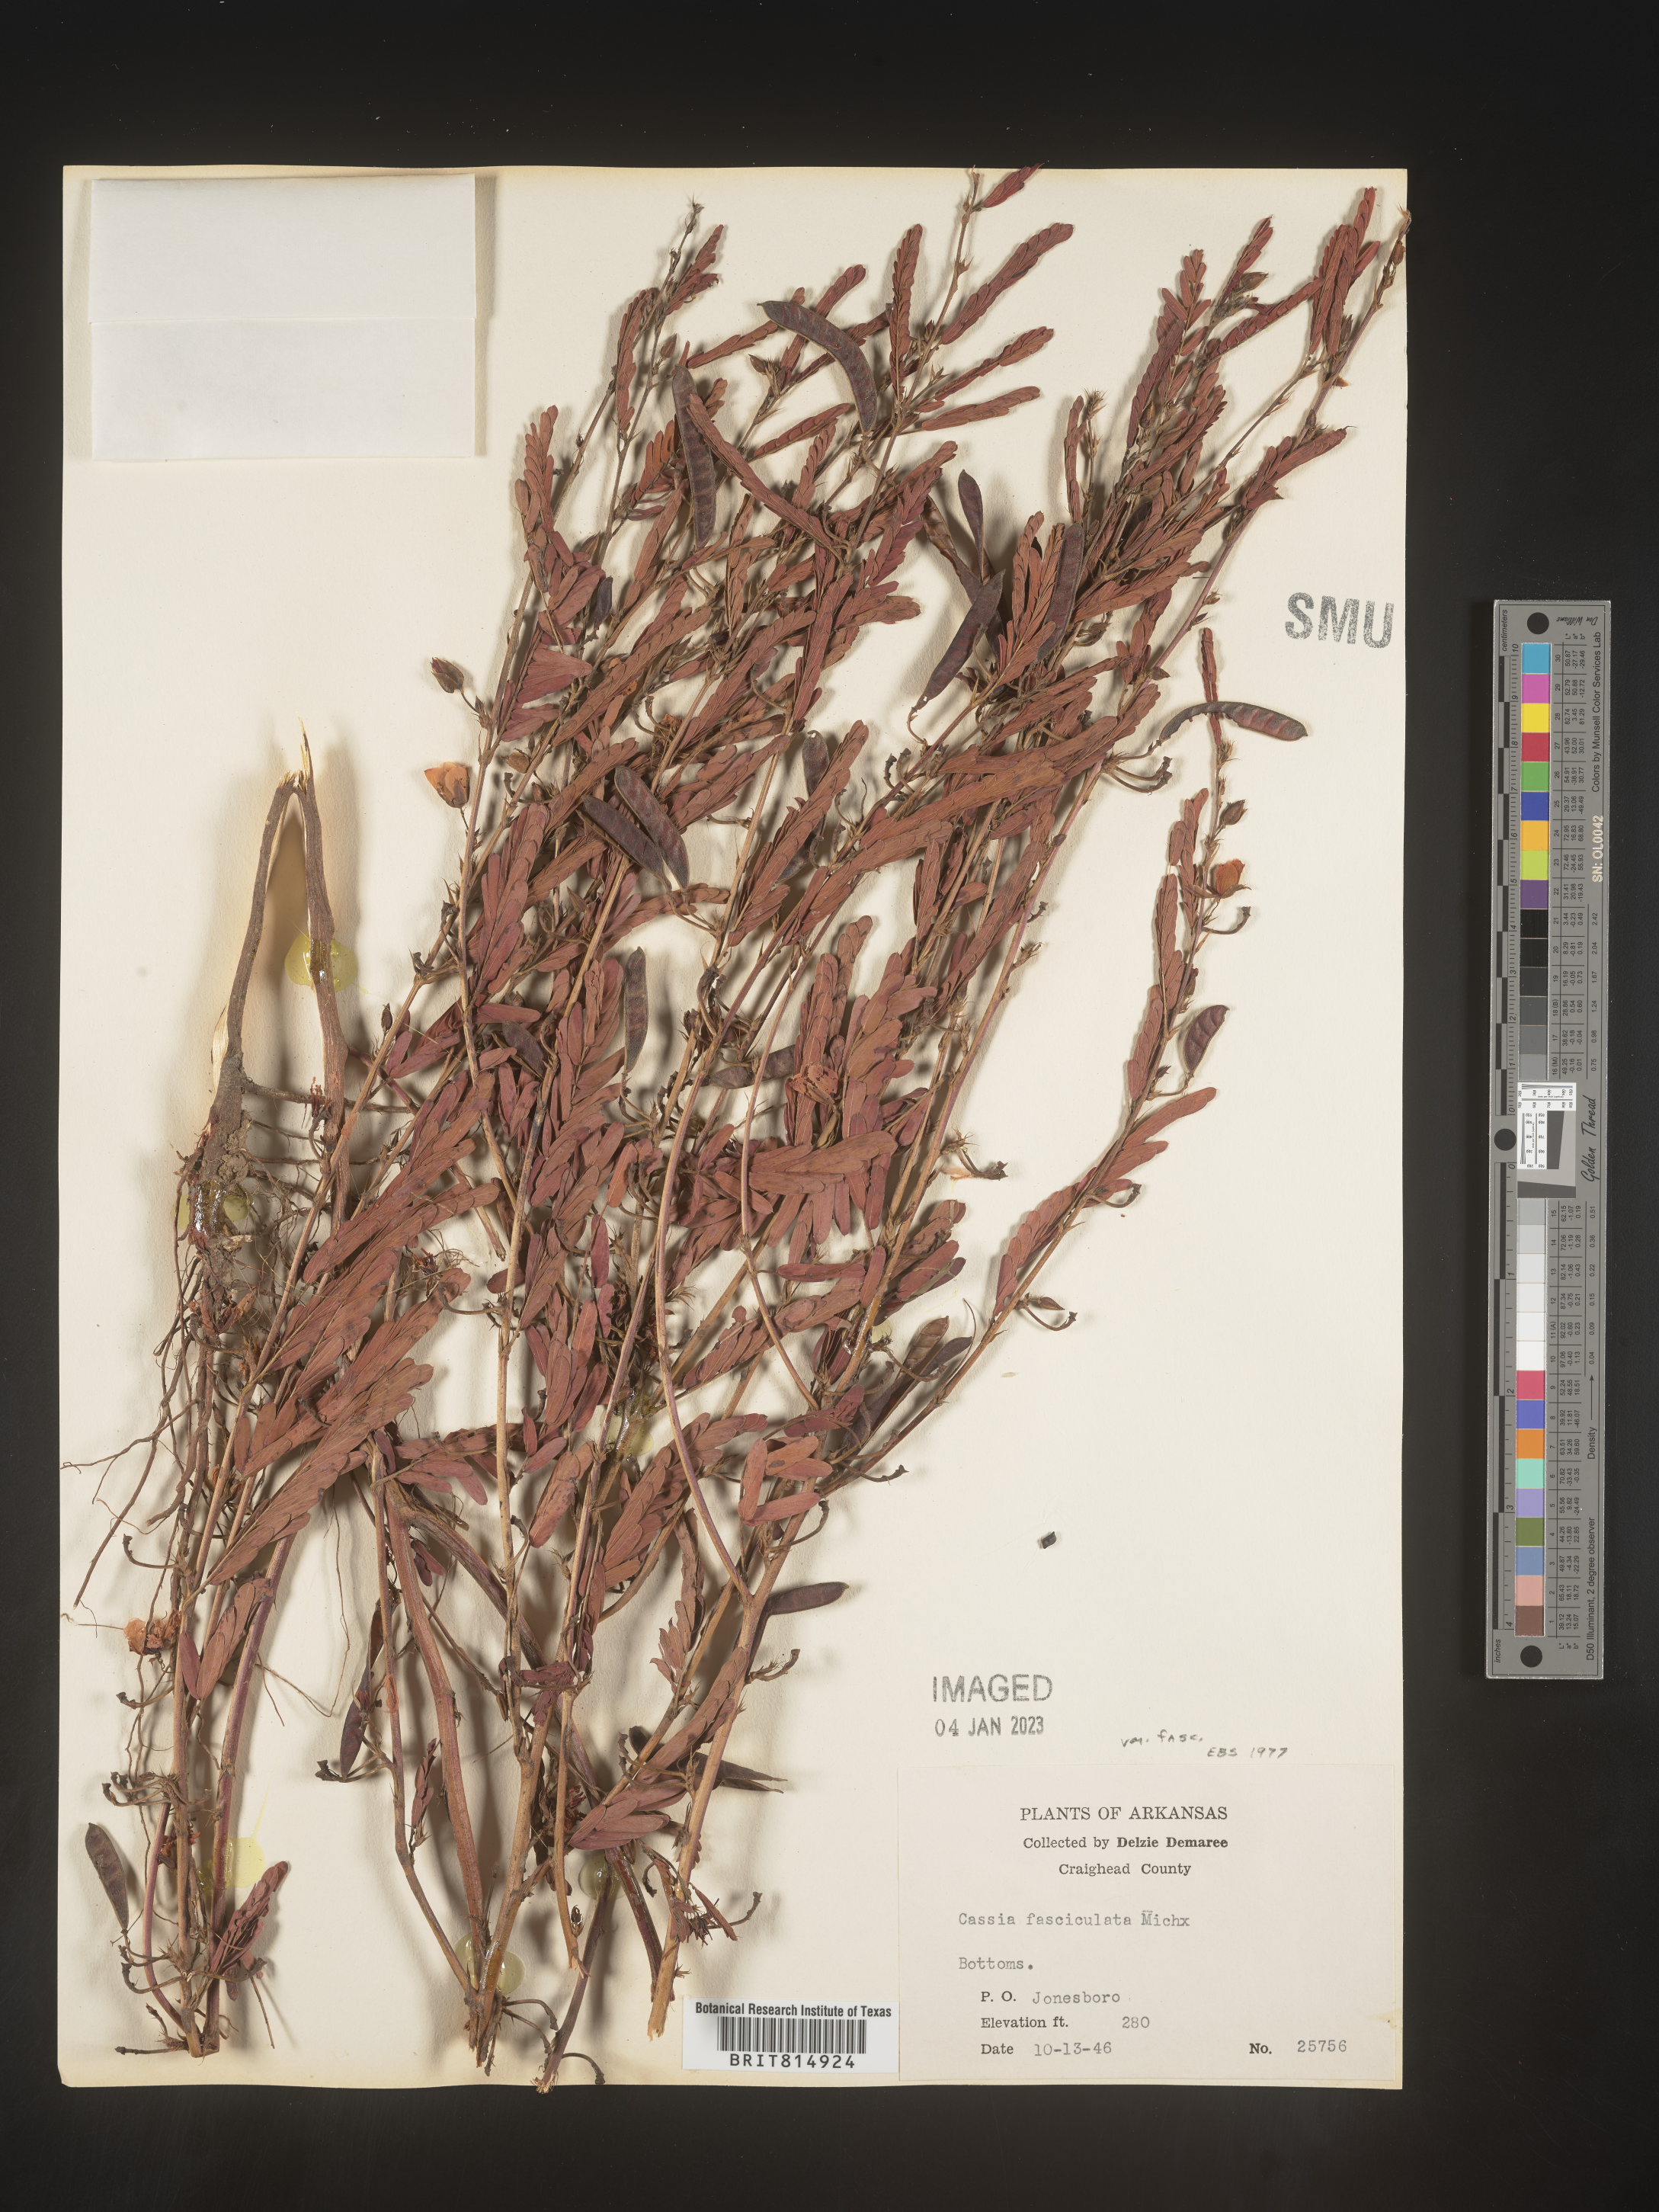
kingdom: Plantae
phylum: Tracheophyta
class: Magnoliopsida
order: Fabales
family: Fabaceae
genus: Chamaecrista
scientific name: Chamaecrista fasciculata
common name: Golden cassia
